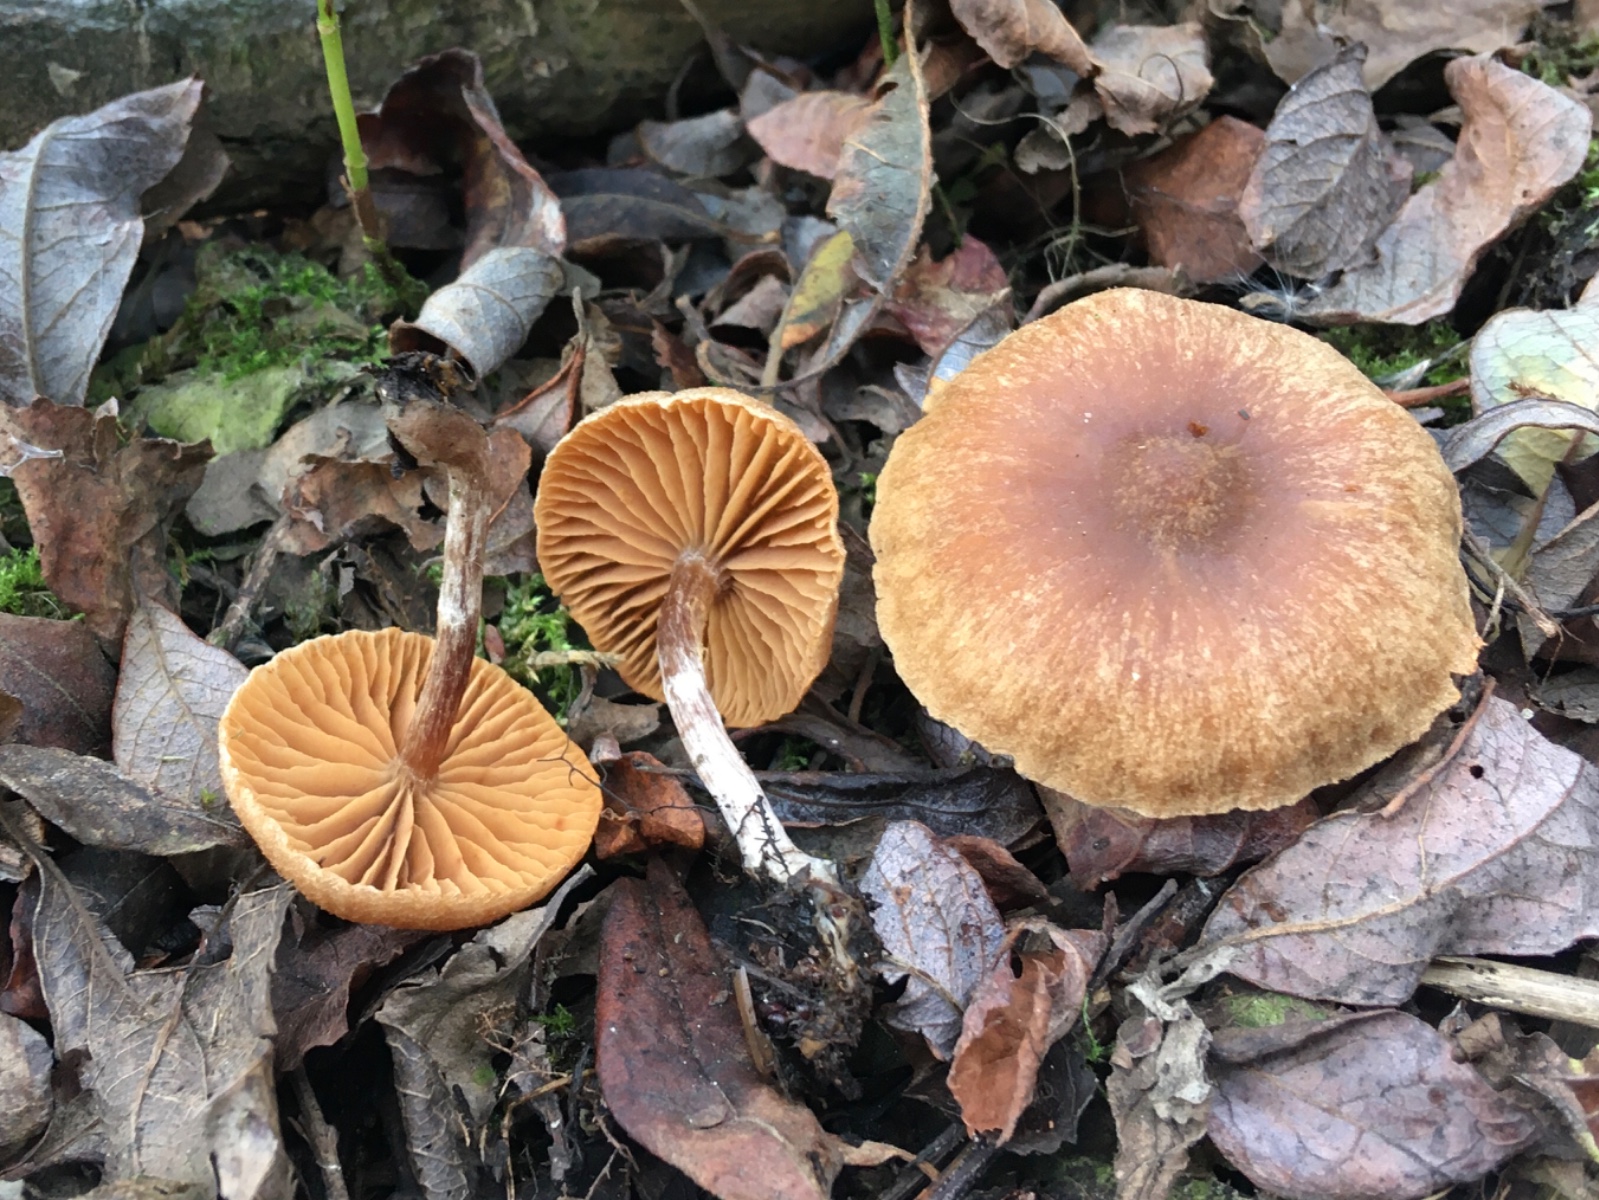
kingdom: Fungi
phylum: Basidiomycota
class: Agaricomycetes
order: Agaricales
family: Cortinariaceae
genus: Cortinarius
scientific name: Cortinarius expallens
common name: bomulds-slørhat
